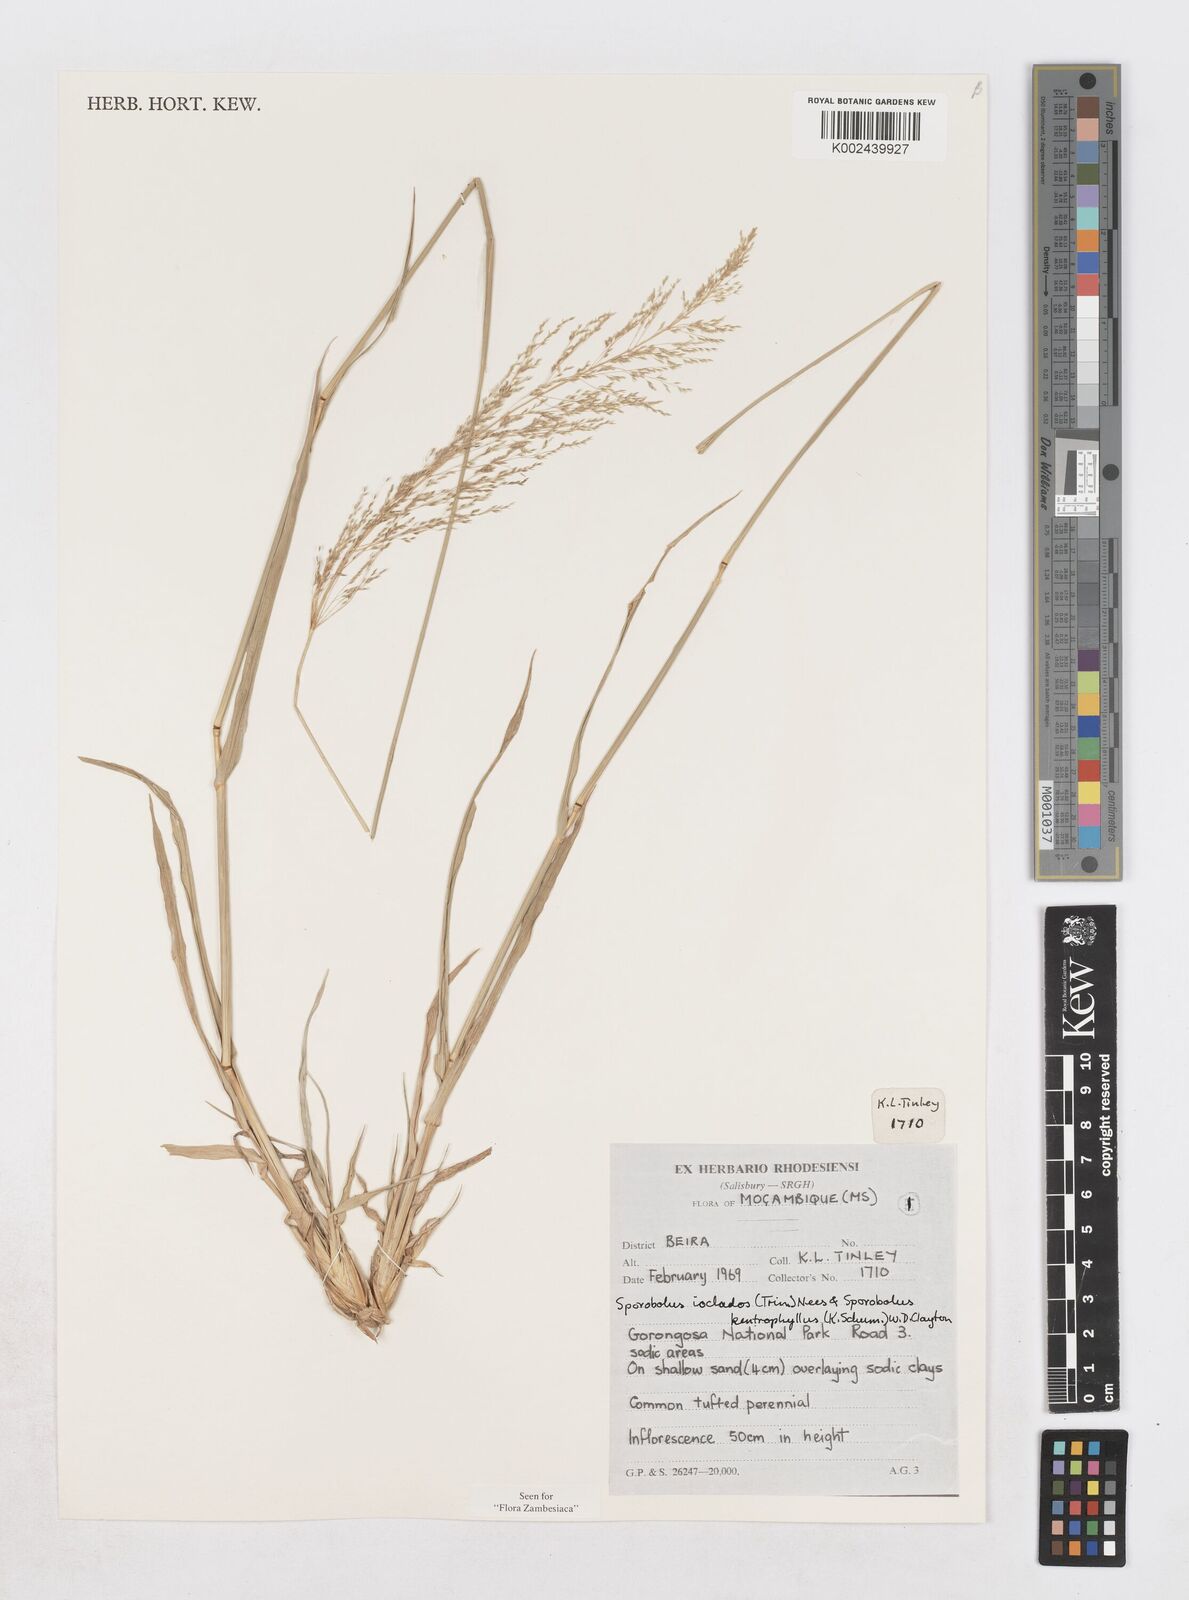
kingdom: Plantae
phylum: Tracheophyta
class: Liliopsida
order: Poales
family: Poaceae
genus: Sporobolus
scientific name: Sporobolus ioclados
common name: Pan dropseed
